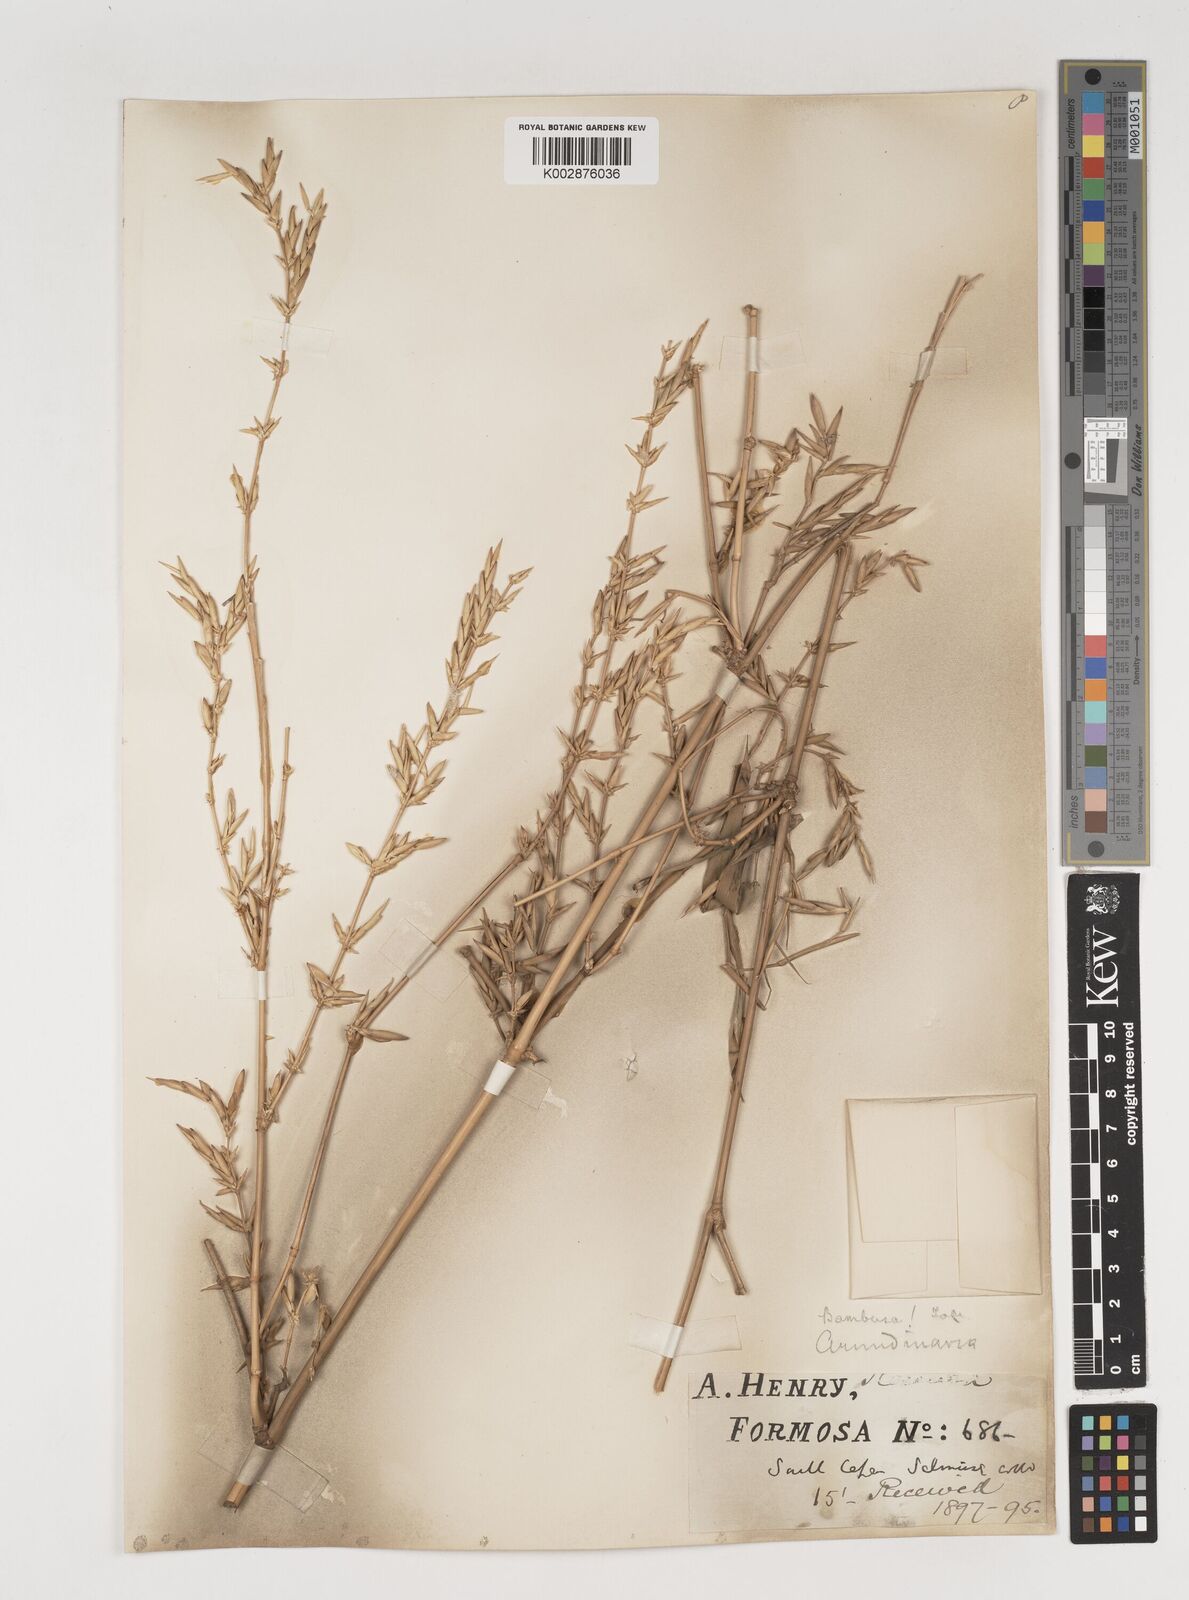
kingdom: Plantae
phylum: Tracheophyta
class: Liliopsida
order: Poales
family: Poaceae
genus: Bambusa
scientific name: Bambusa tuldoides
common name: Verdant bamboo
